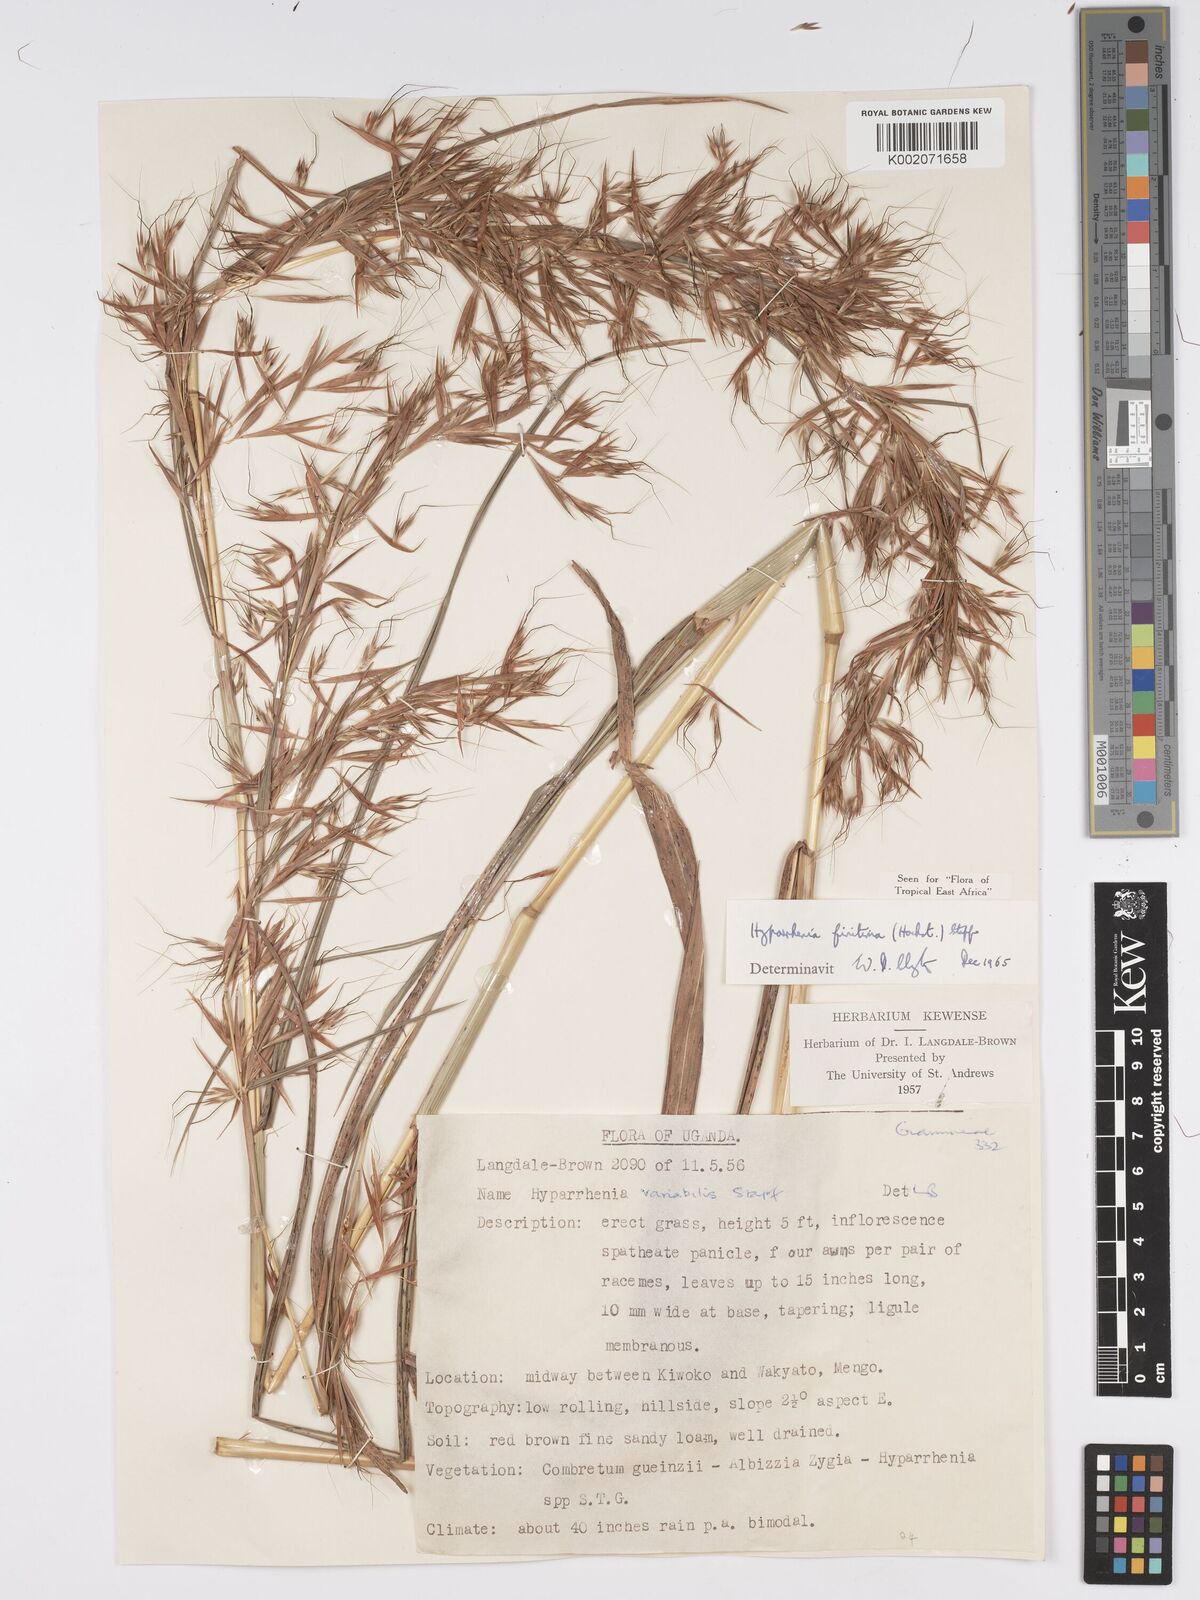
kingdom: Plantae
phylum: Tracheophyta
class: Liliopsida
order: Poales
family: Poaceae
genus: Hyparrhenia
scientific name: Hyparrhenia finitima
